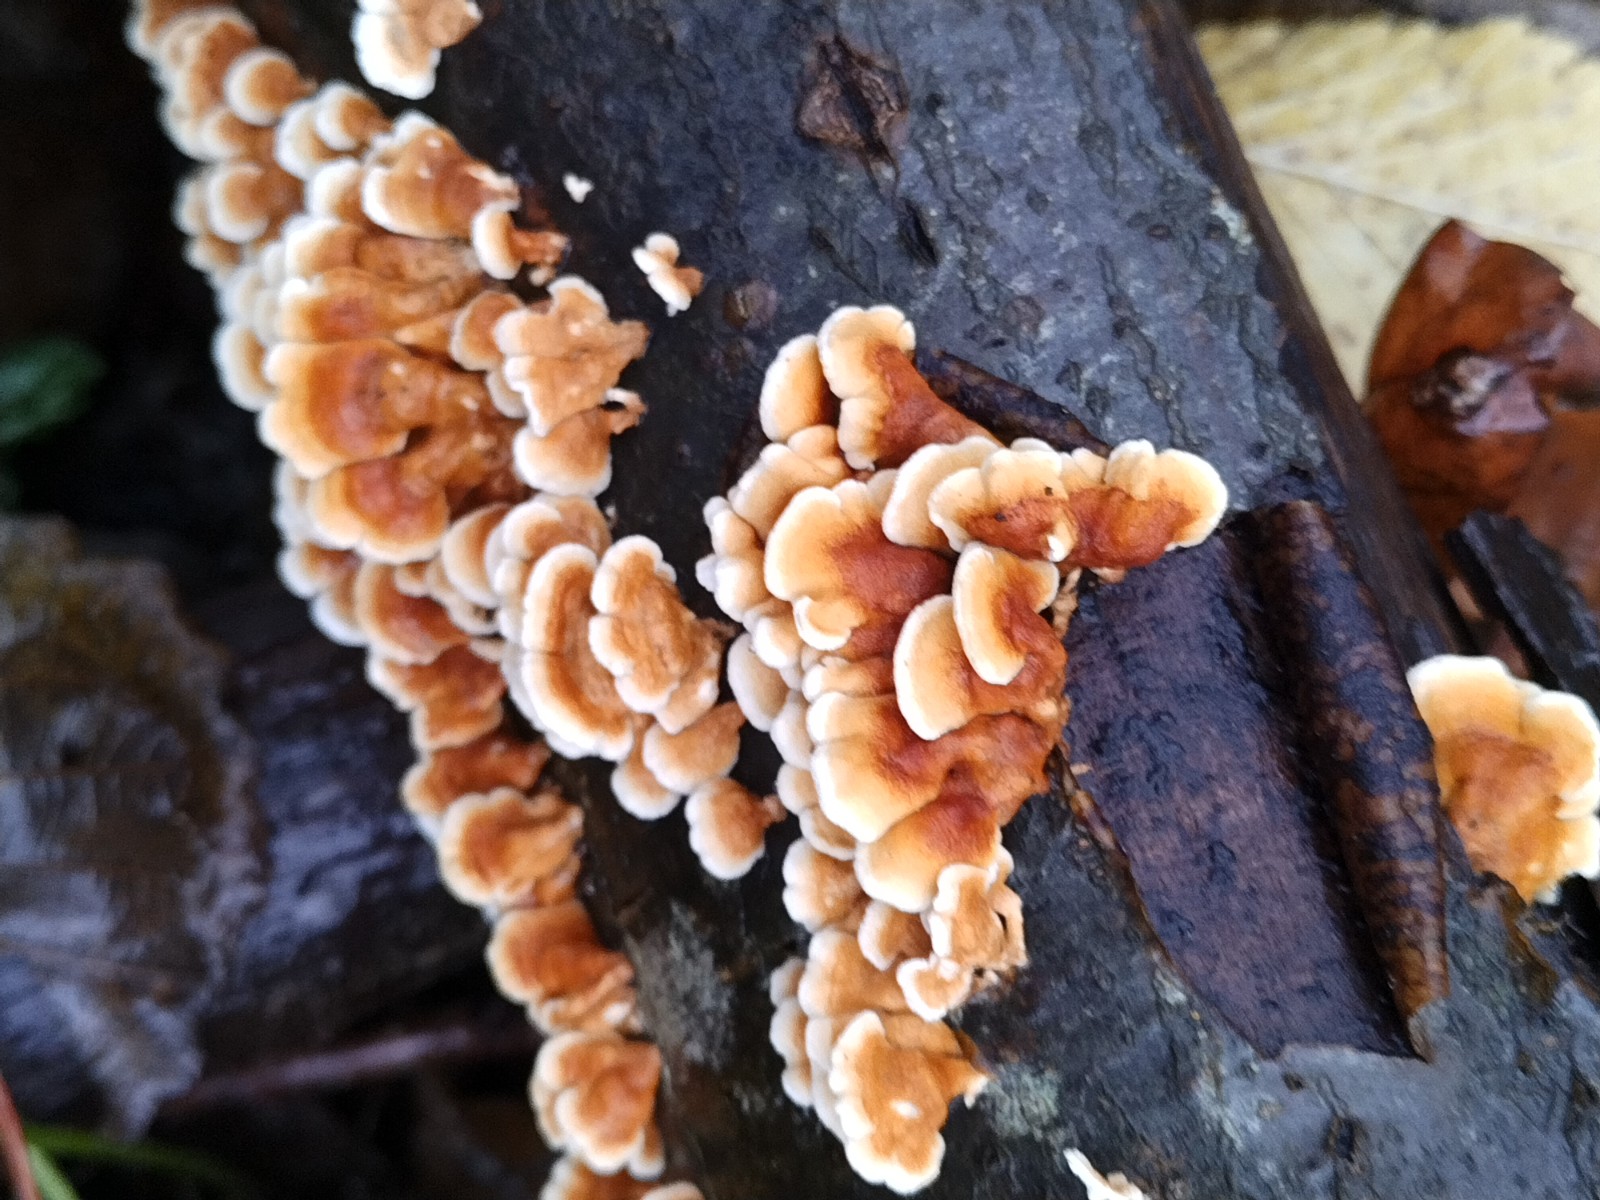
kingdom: Fungi
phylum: Basidiomycota
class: Agaricomycetes
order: Amylocorticiales
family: Amylocorticiaceae
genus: Plicaturopsis
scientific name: Plicaturopsis crispa
